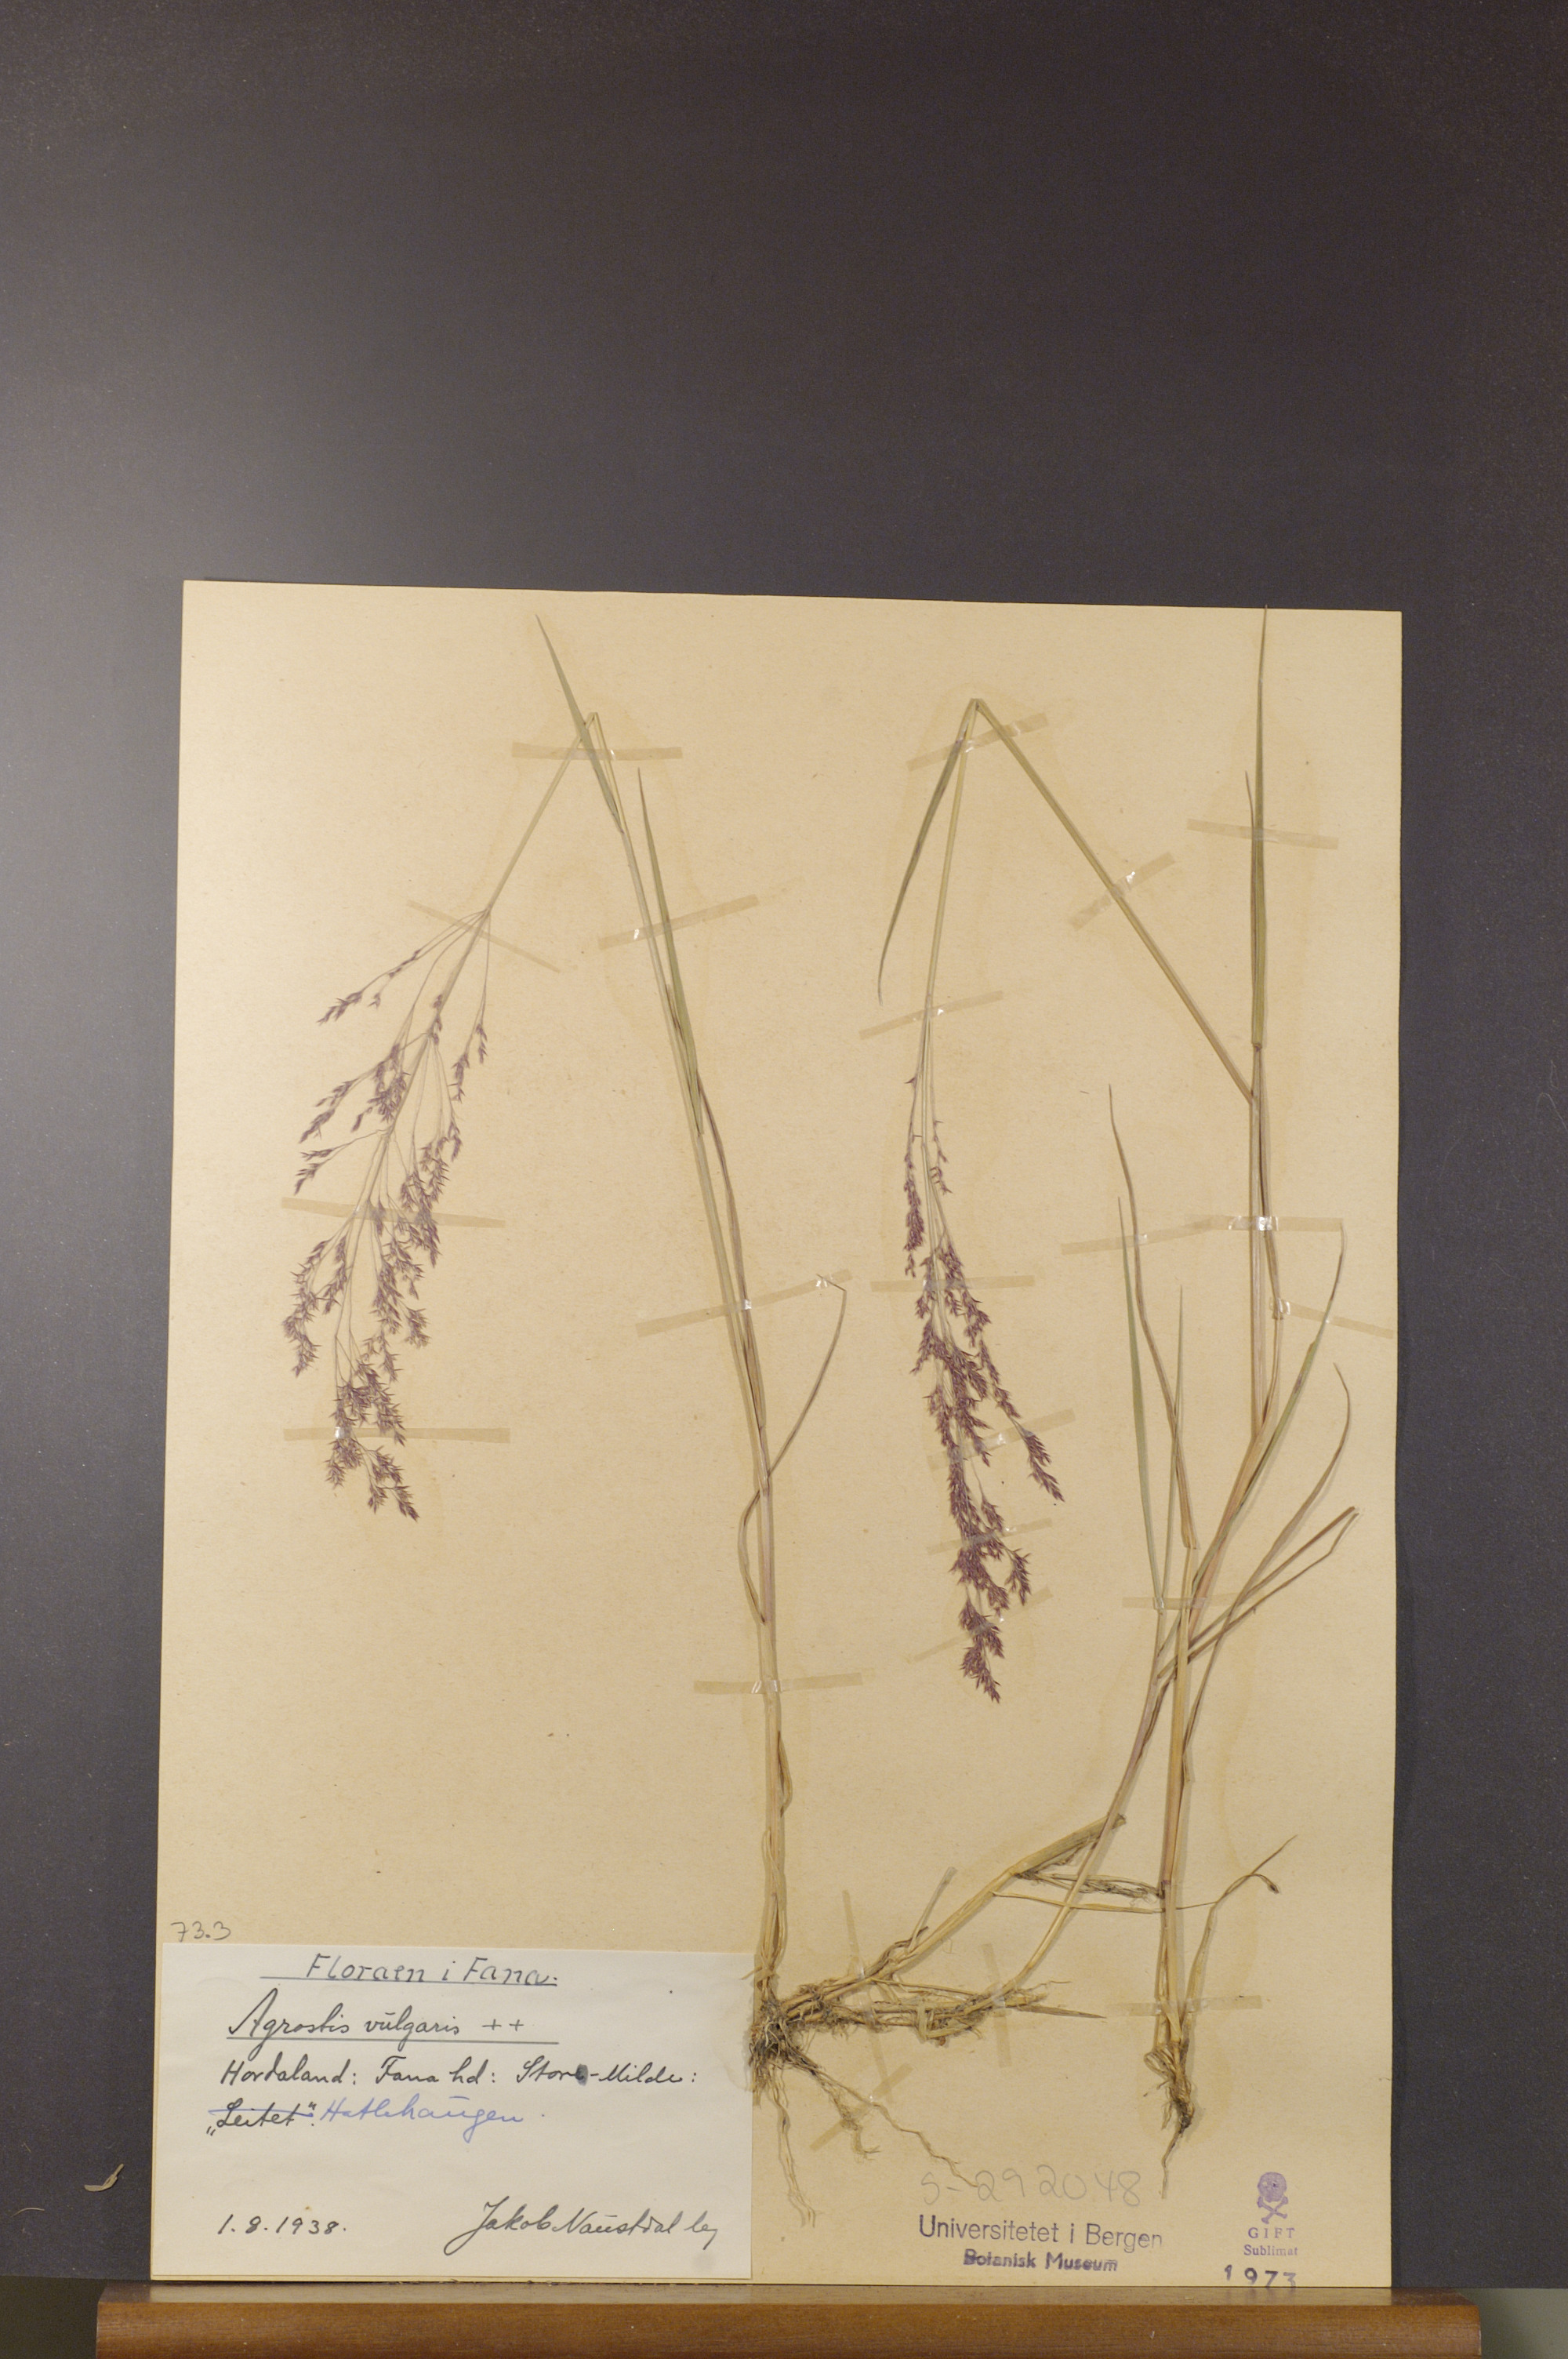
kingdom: Plantae
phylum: Tracheophyta
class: Liliopsida
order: Poales
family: Poaceae
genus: Agrostis
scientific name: Agrostis capillaris
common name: Colonial bentgrass
